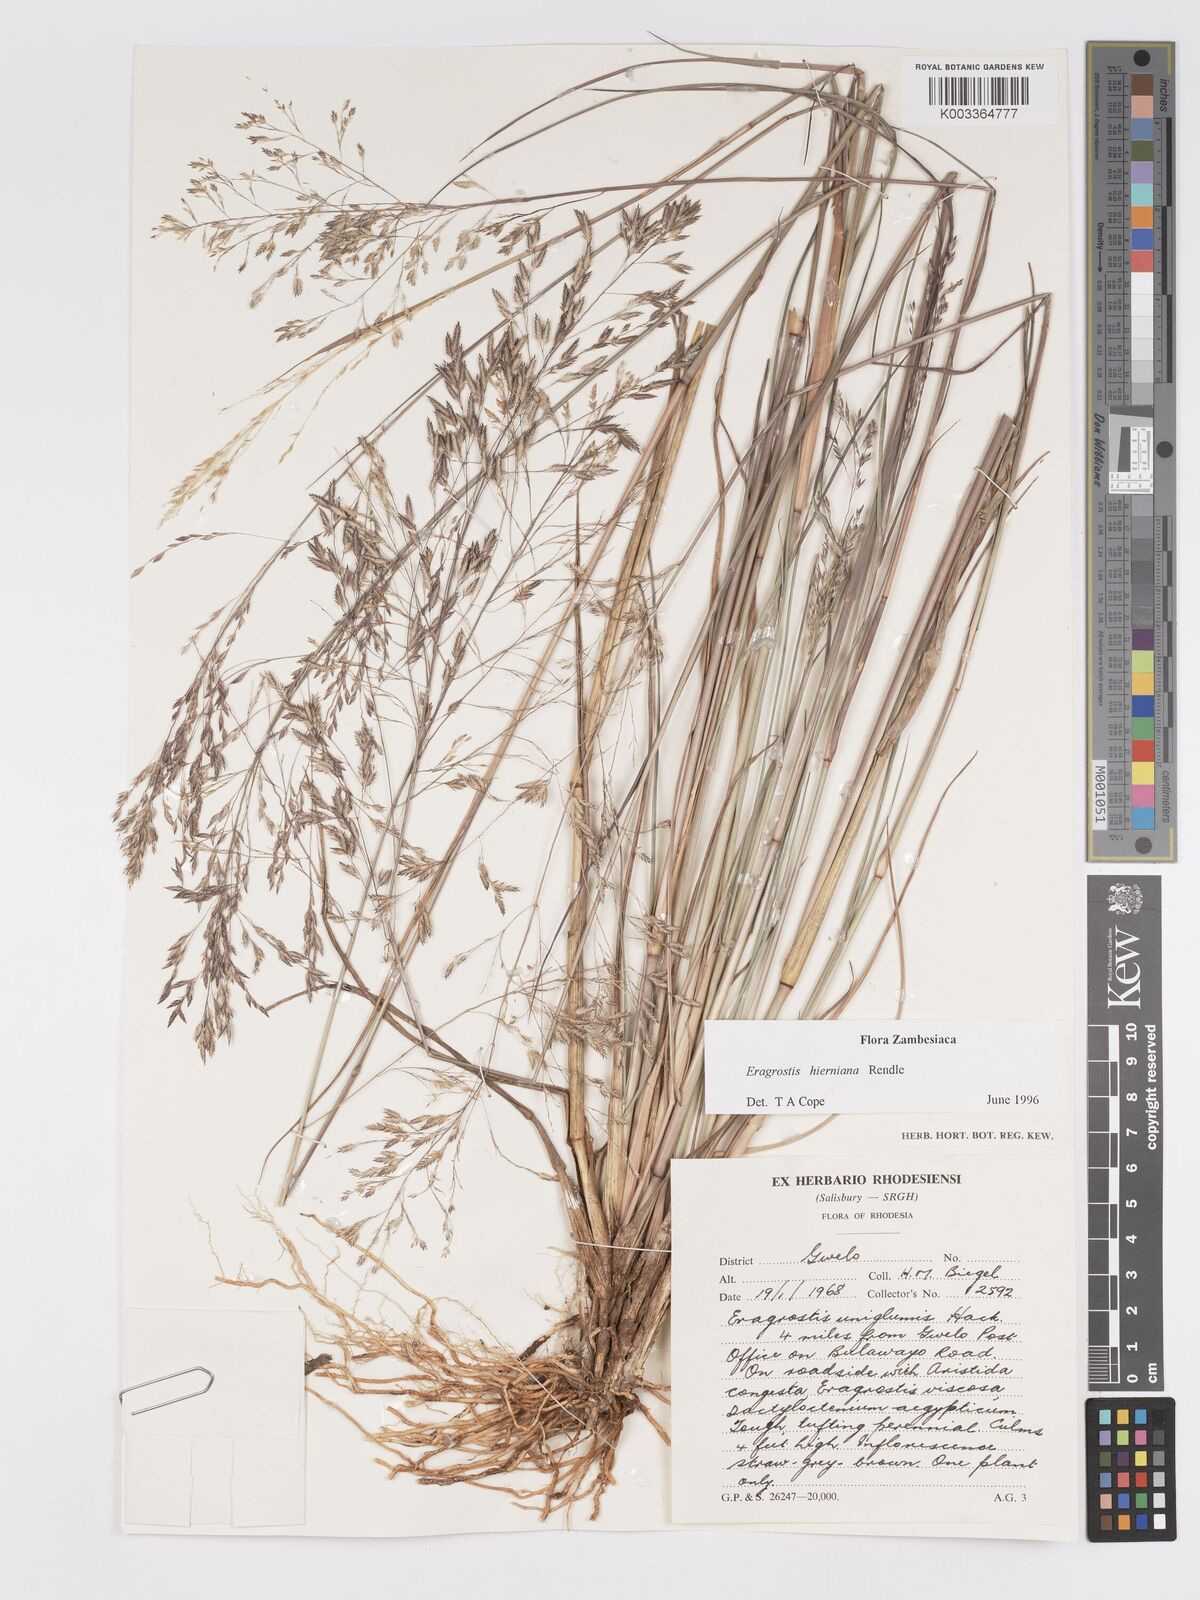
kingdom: Plantae
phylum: Tracheophyta
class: Liliopsida
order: Poales
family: Poaceae
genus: Eragrostis
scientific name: Eragrostis hierniana
